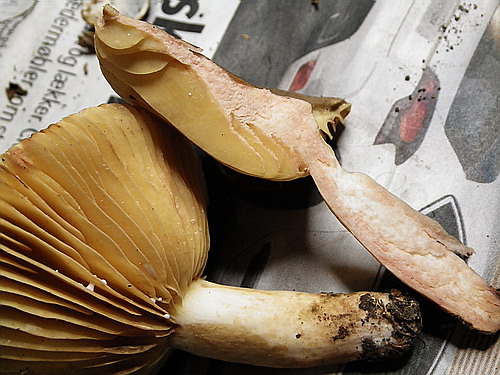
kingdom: Fungi
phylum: Basidiomycota
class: Agaricomycetes
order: Russulales
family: Russulaceae
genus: Lactarius
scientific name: Lactarius romagnesii
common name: fjernbladet mælkehat
